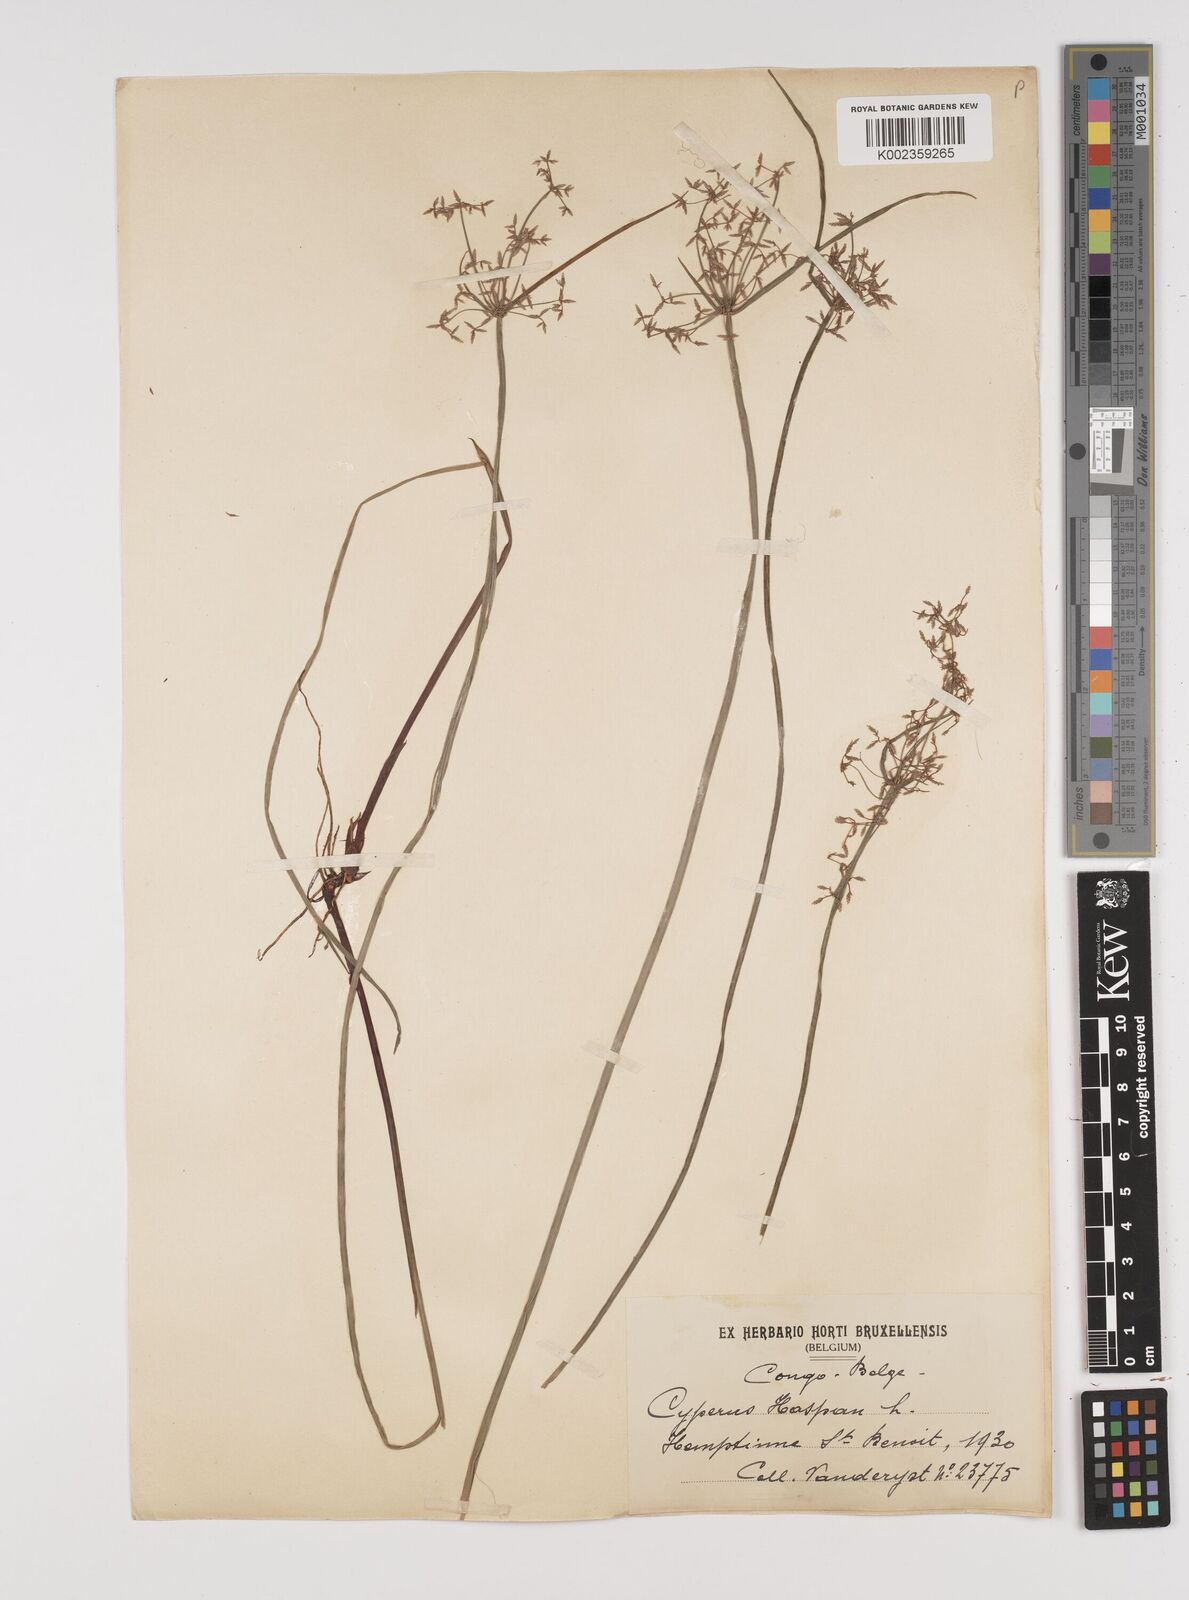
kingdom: Plantae
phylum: Tracheophyta
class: Liliopsida
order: Poales
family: Cyperaceae
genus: Cyperus
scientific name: Cyperus haspan
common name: Haspan flatsedge
